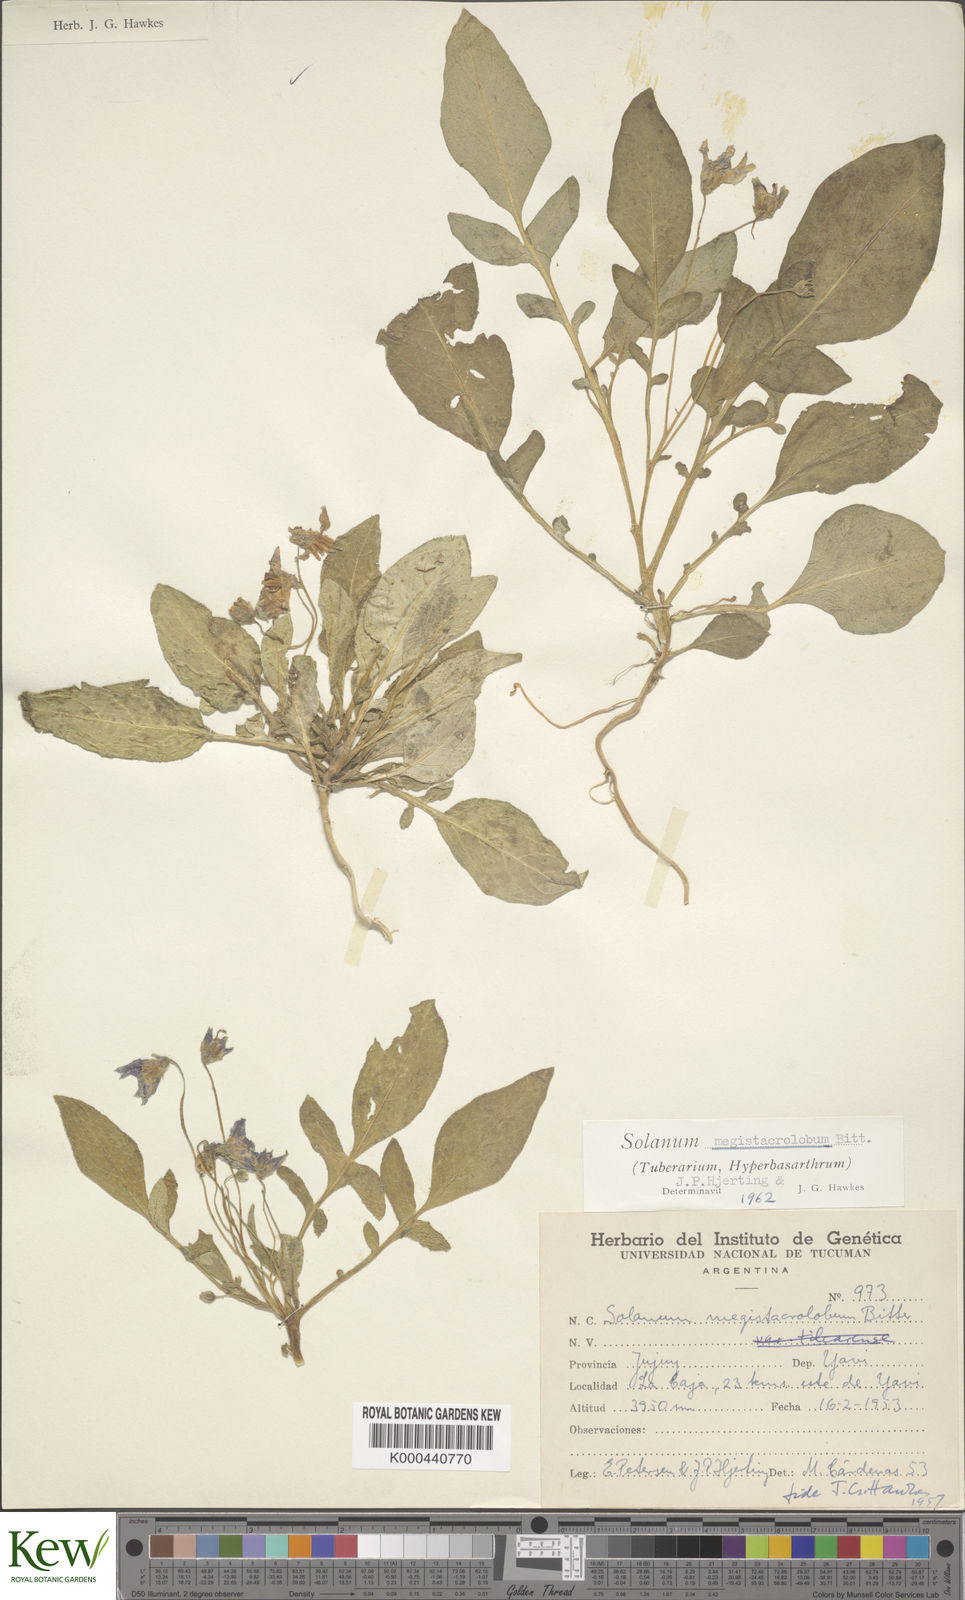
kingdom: Plantae
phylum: Tracheophyta
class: Magnoliopsida
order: Solanales
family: Solanaceae
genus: Solanum
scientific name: Solanum boliviense
